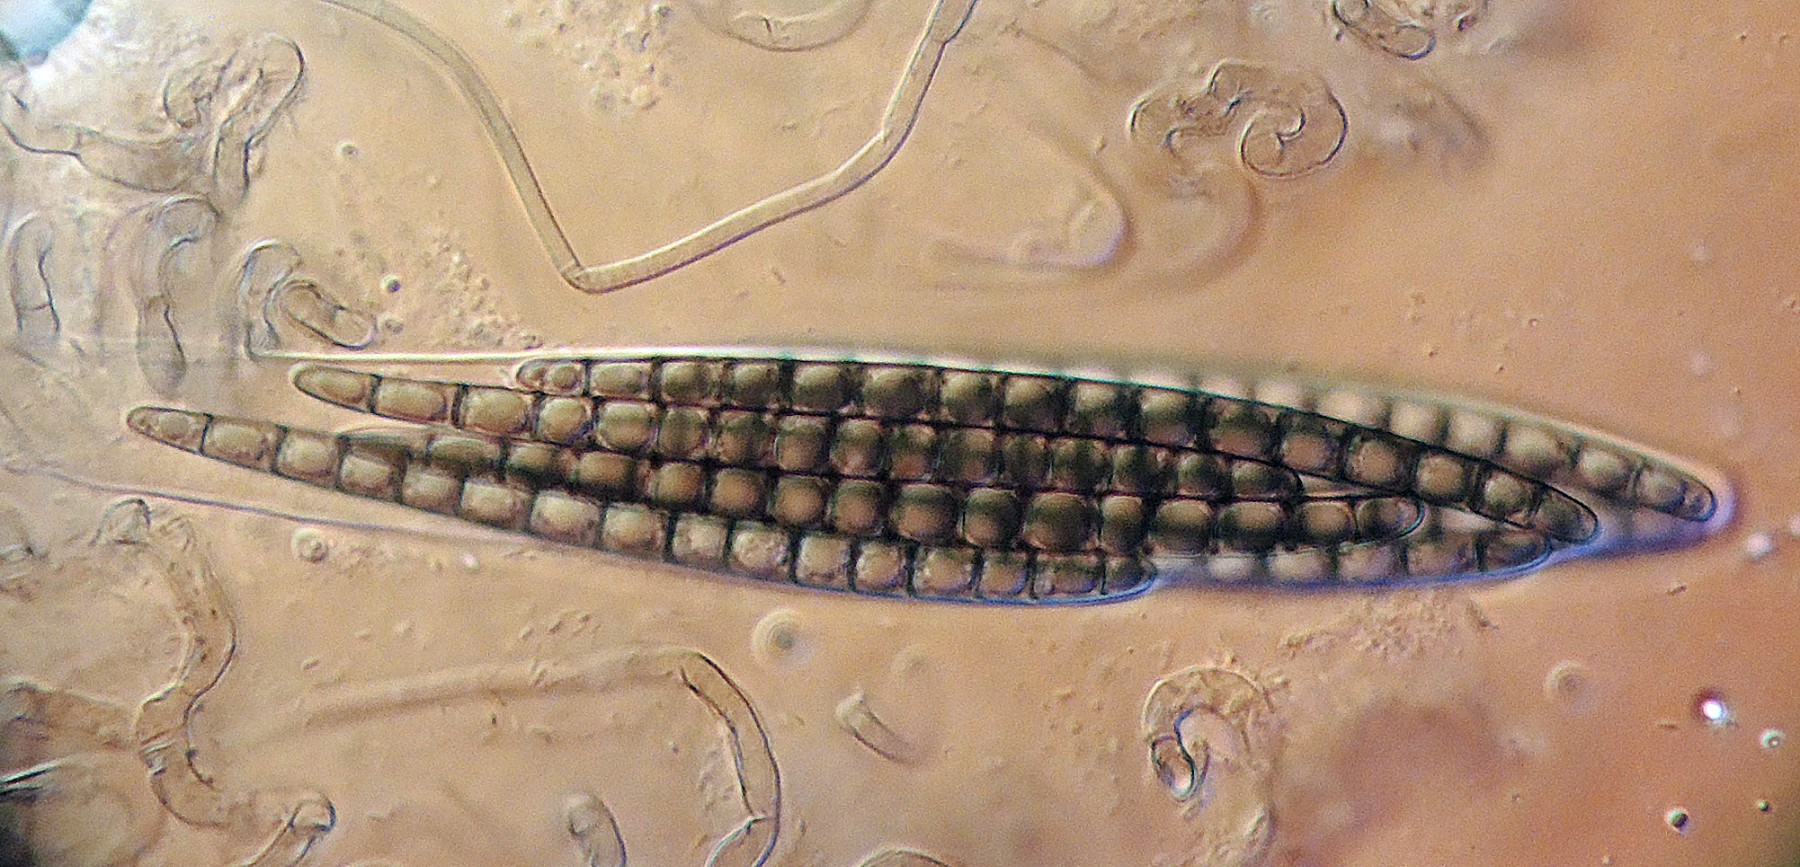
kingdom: Fungi
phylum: Ascomycota
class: Geoglossomycetes
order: Geoglossales
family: Geoglossaceae
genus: Geoglossum
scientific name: Geoglossum difforme
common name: klæbrig jordtunge
